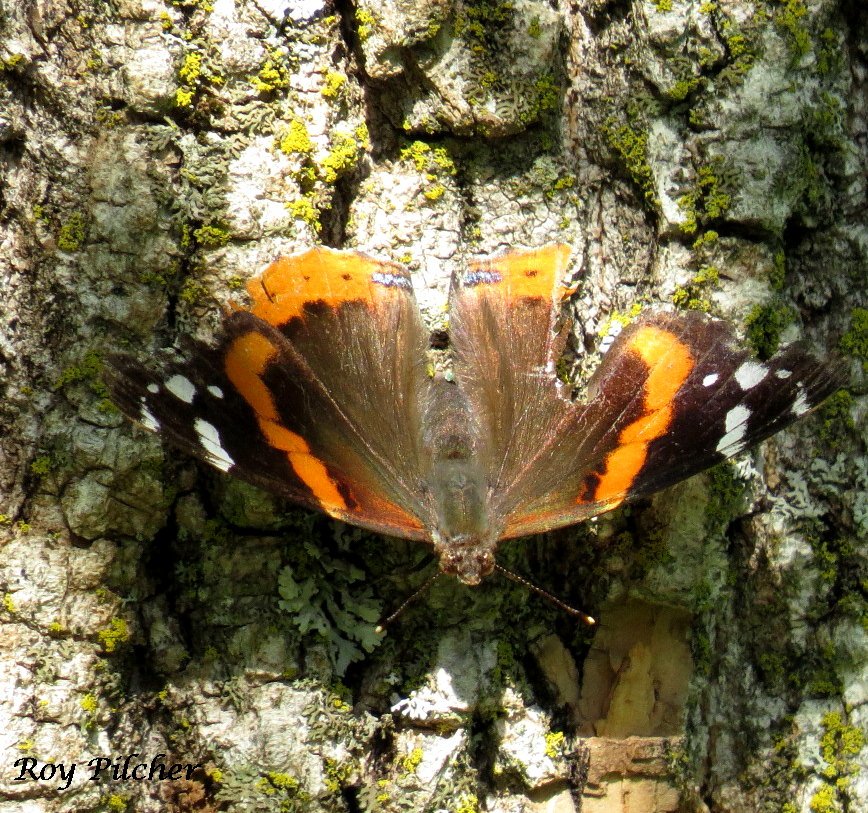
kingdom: Animalia
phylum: Arthropoda
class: Insecta
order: Lepidoptera
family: Nymphalidae
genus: Vanessa
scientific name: Vanessa atalanta
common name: Red Admiral
